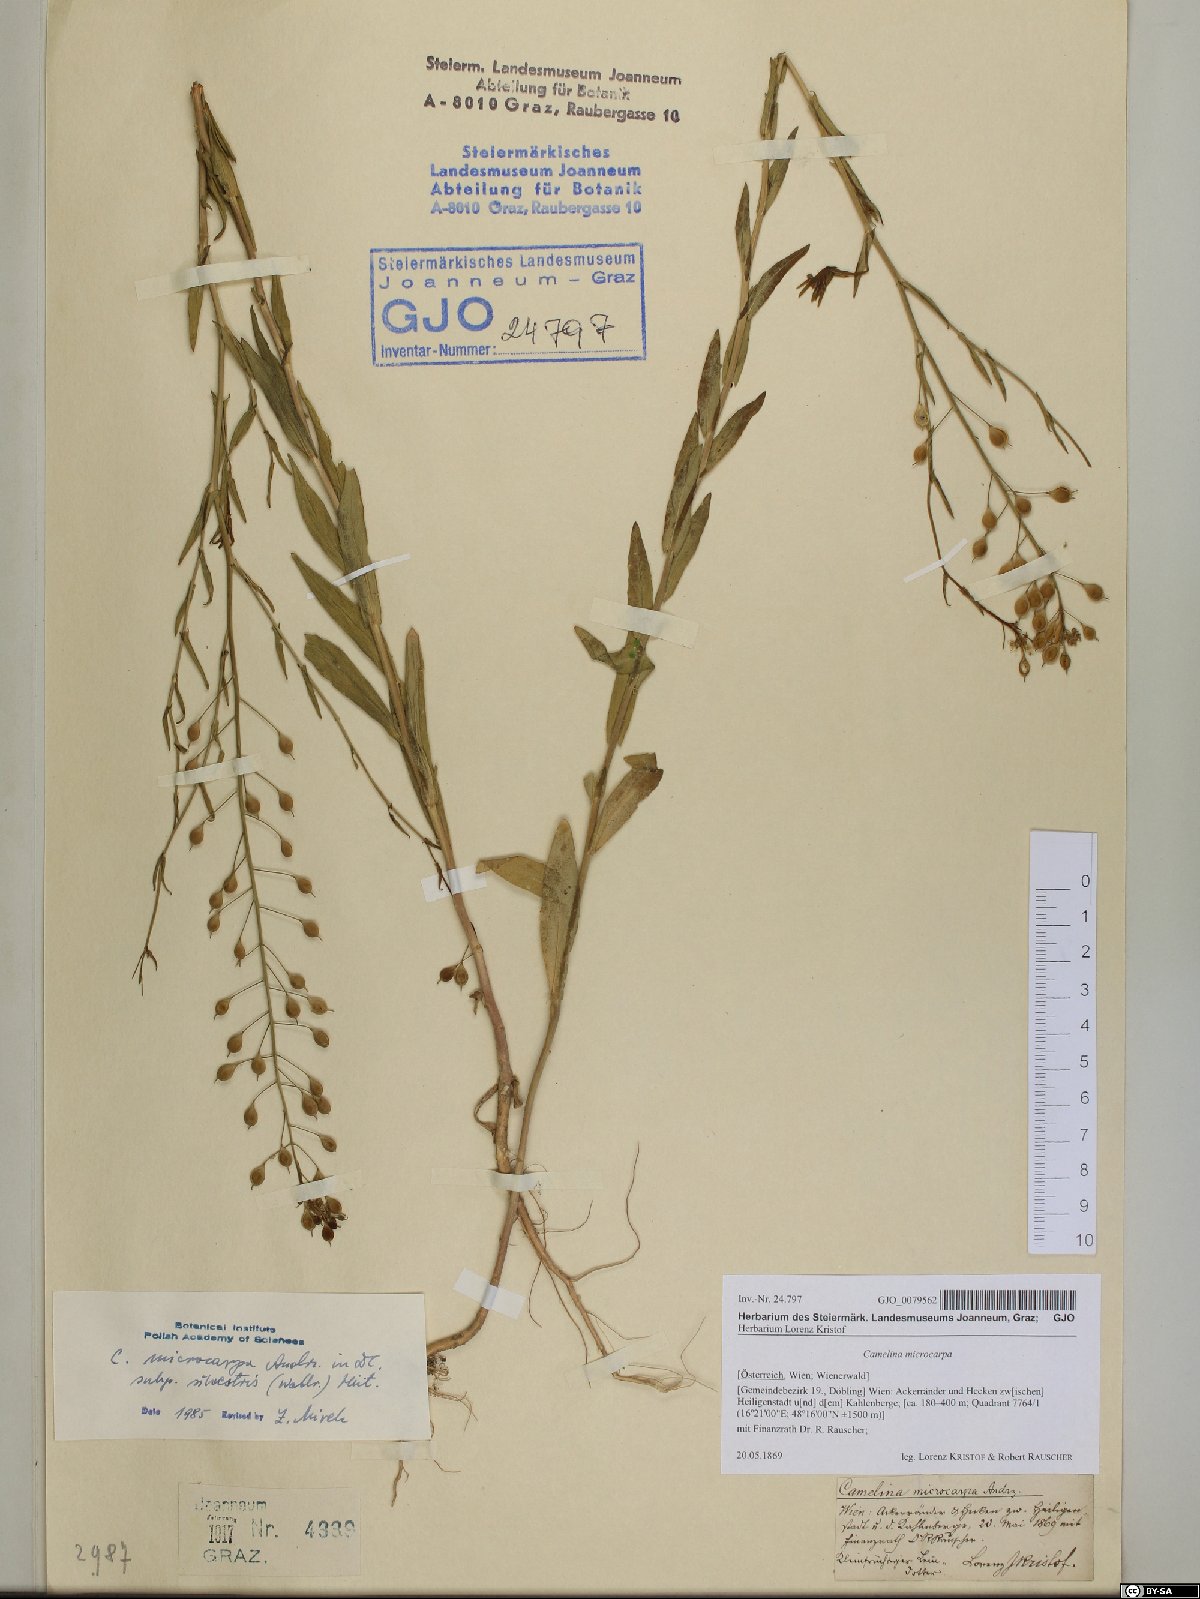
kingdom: Plantae
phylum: Tracheophyta
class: Magnoliopsida
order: Brassicales
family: Brassicaceae
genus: Camelina
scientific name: Camelina microcarpa
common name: Lesser gold-of-pleasure
